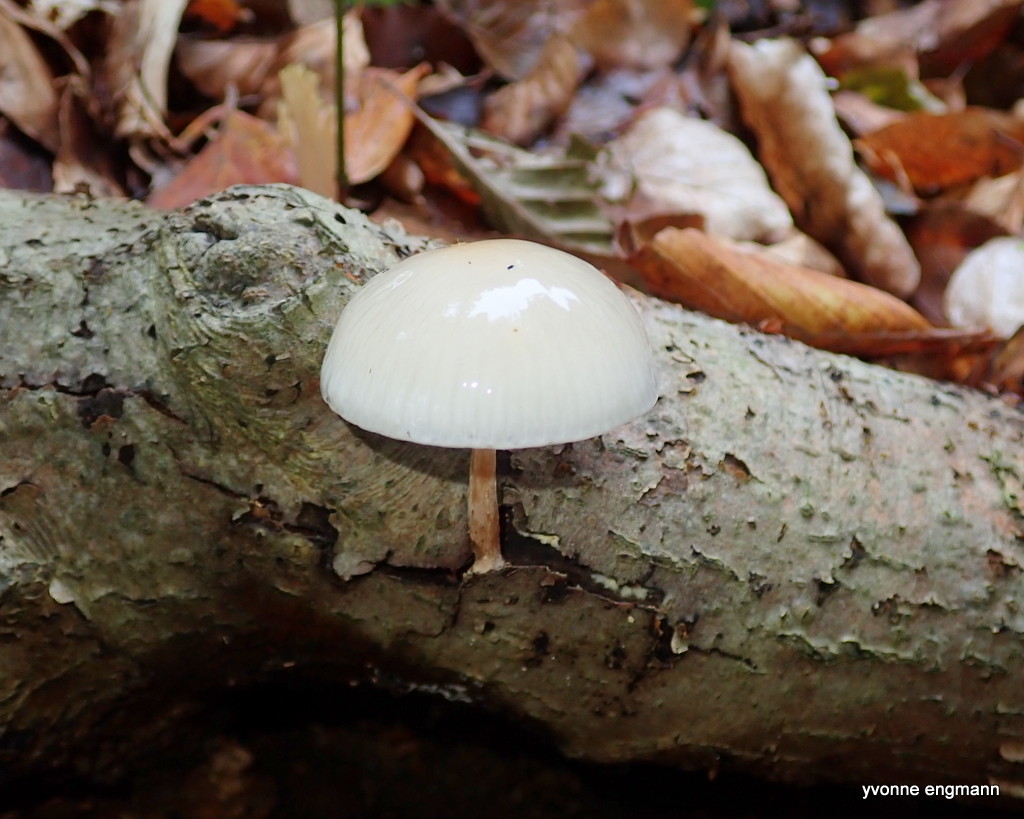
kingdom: Fungi
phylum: Basidiomycota
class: Agaricomycetes
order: Agaricales
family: Physalacriaceae
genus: Mucidula
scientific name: Mucidula mucida
